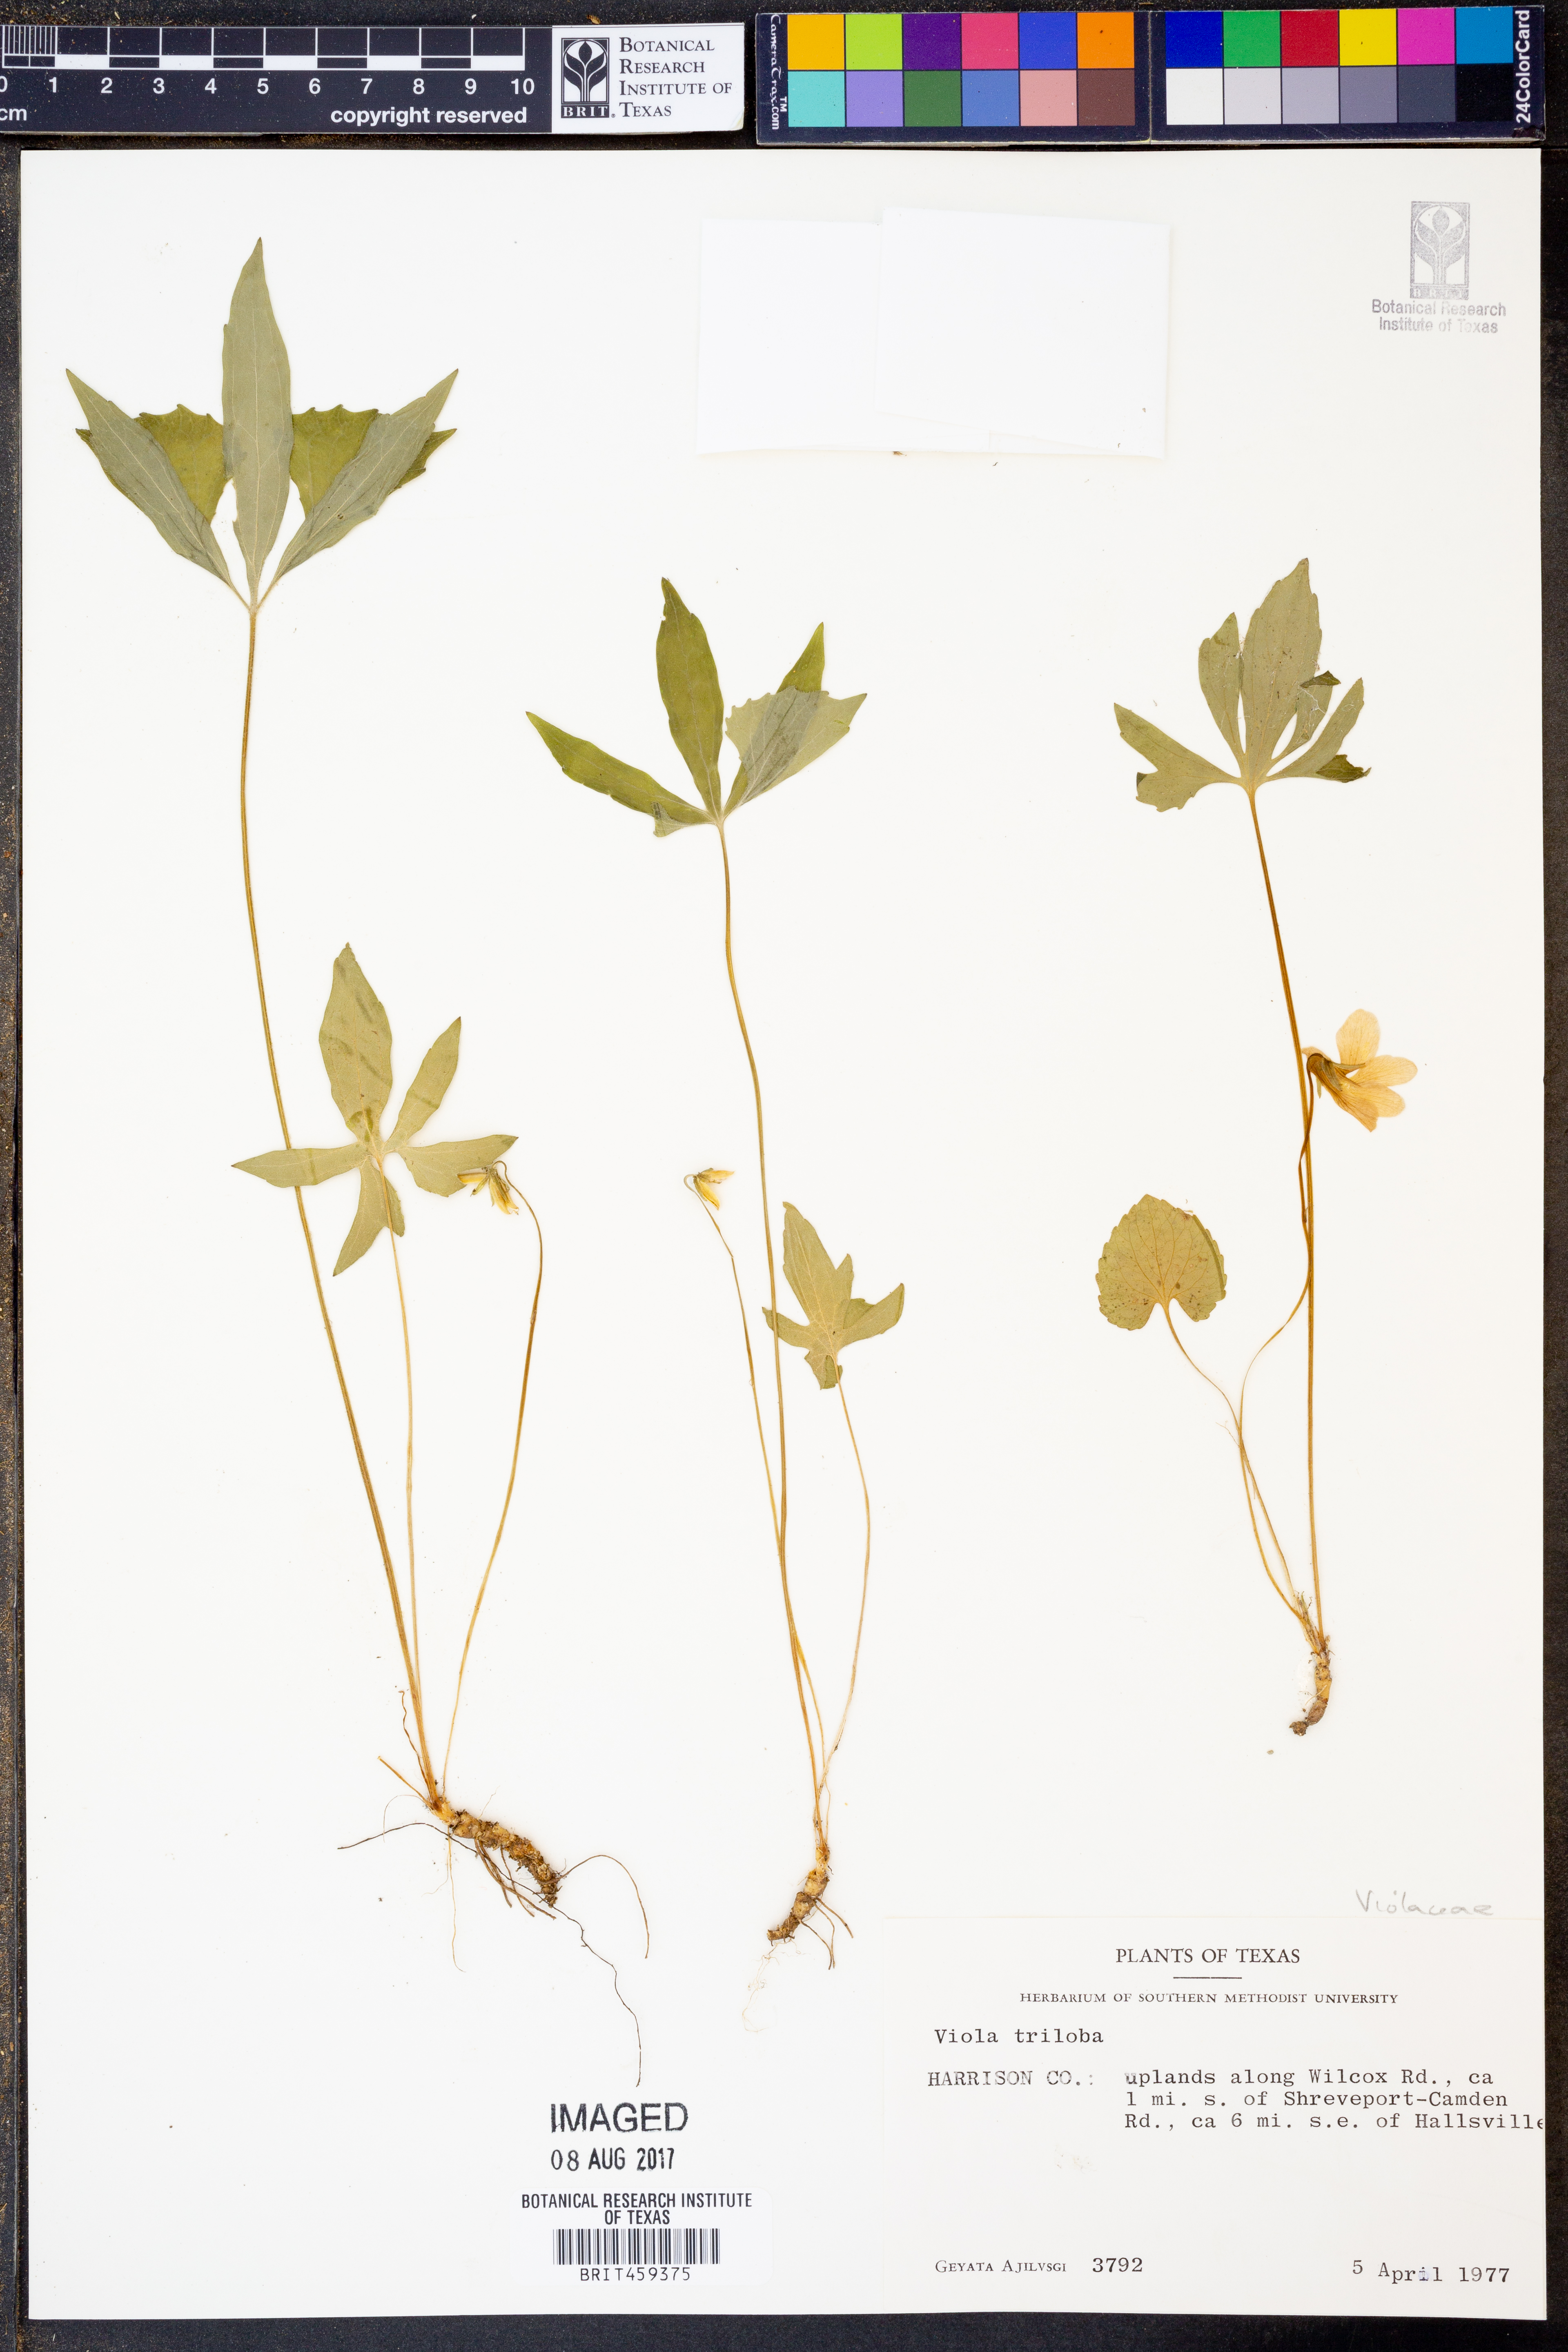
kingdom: Plantae
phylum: Tracheophyta
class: Magnoliopsida
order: Malpighiales
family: Violaceae
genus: Viola
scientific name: Viola palmata
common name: Early blue violet
